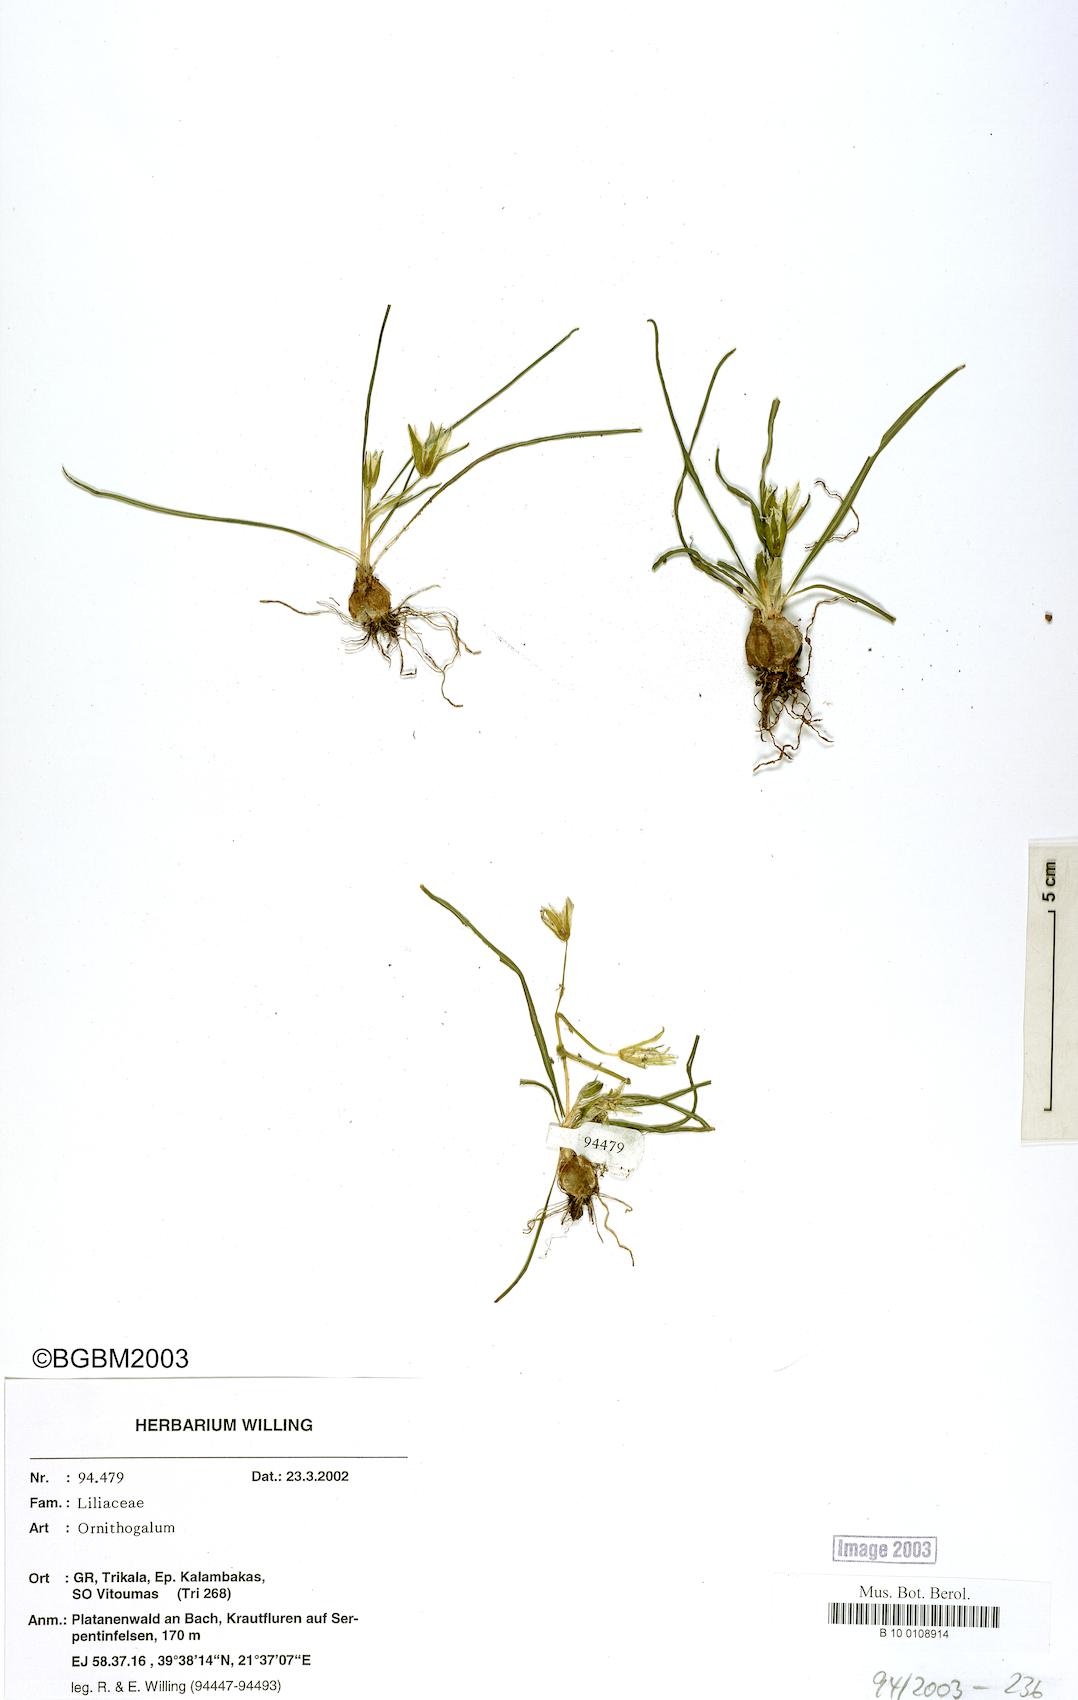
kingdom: Plantae
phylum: Tracheophyta
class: Liliopsida
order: Asparagales
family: Asparagaceae
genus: Ornithogalum
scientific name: Ornithogalum
